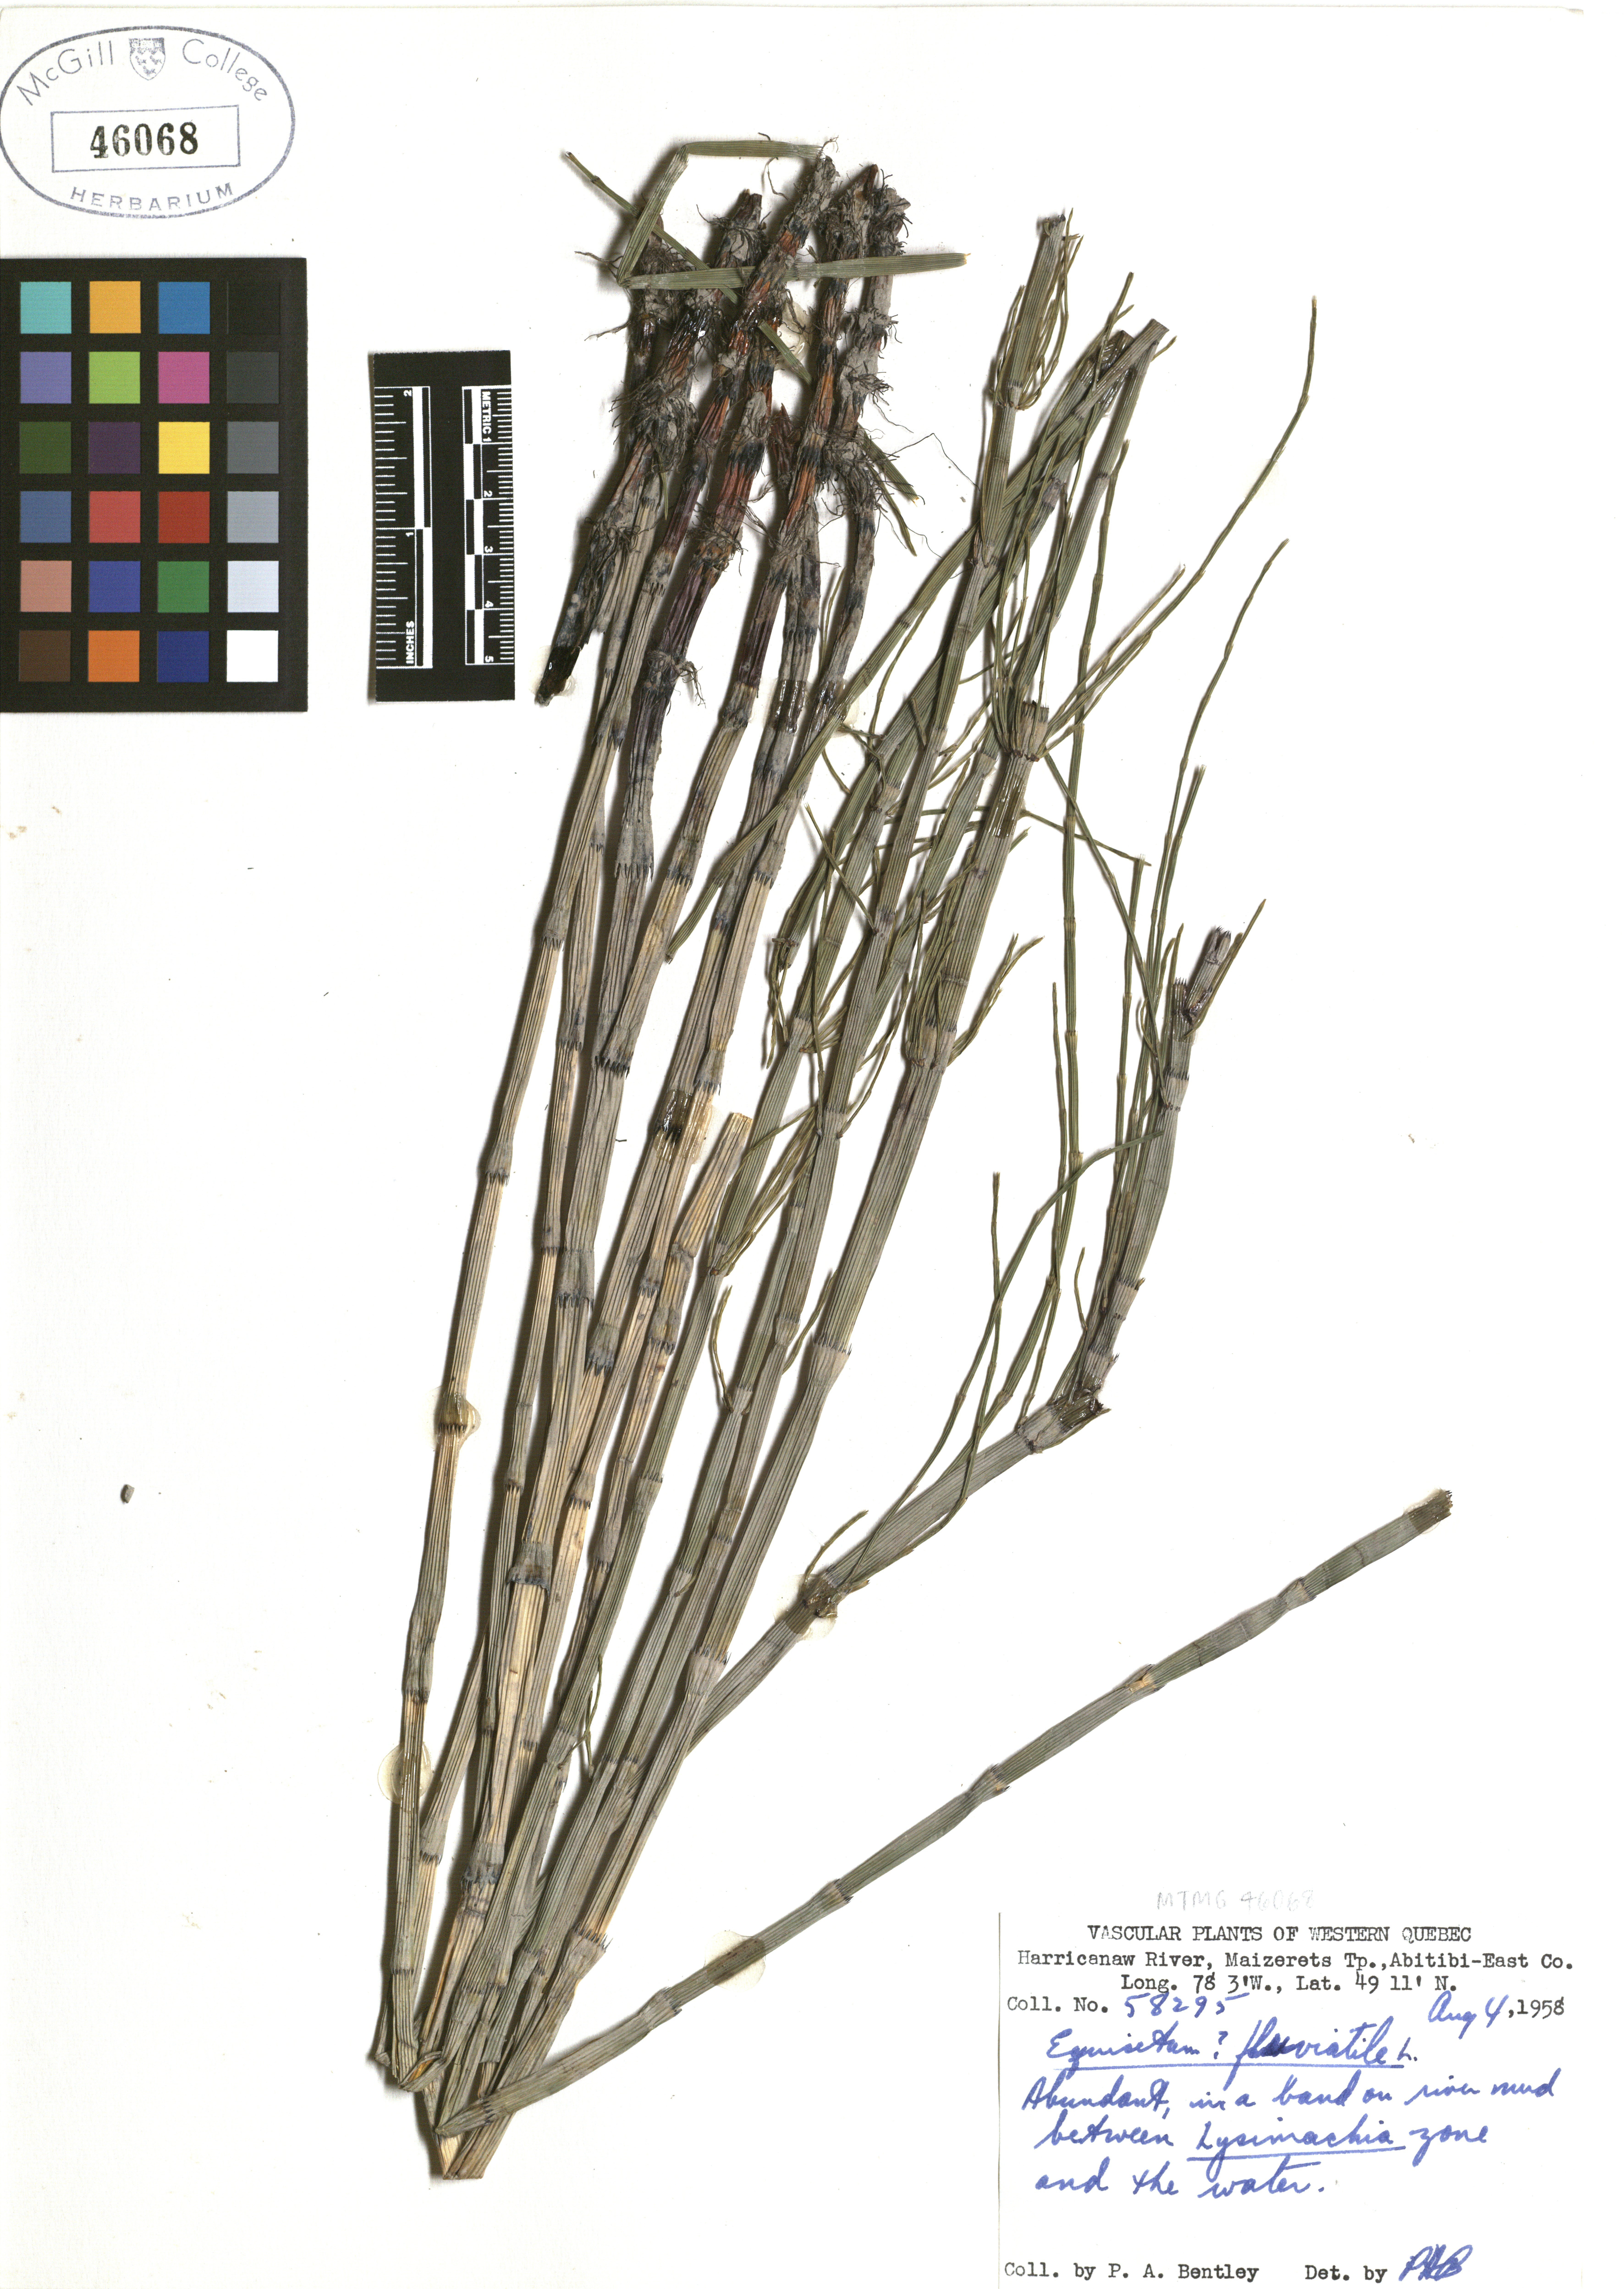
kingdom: Plantae
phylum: Tracheophyta
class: Polypodiopsida
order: Equisetales
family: Equisetaceae
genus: Equisetum
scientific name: Equisetum fluviatile
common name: Water horsetail
